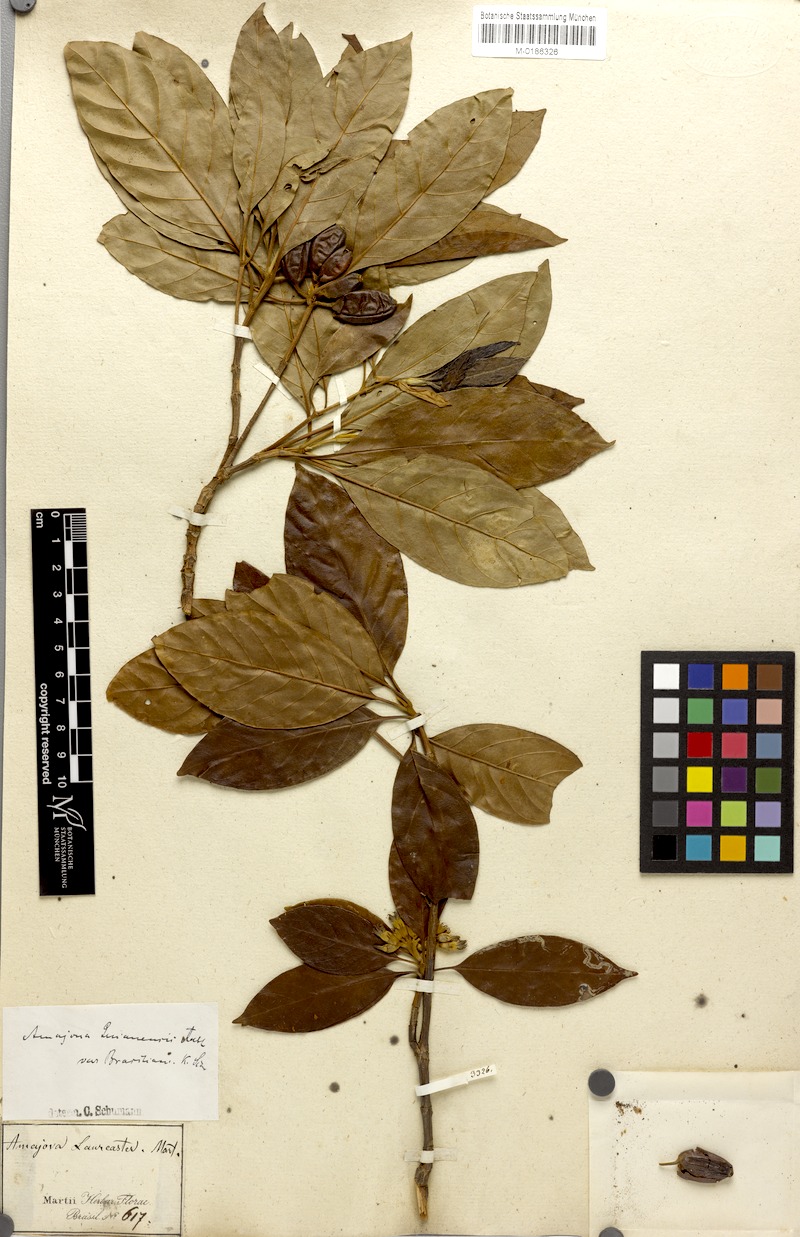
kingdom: Plantae
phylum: Tracheophyta
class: Magnoliopsida
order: Gentianales
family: Rubiaceae
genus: Amaioua
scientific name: Amaioua intermedia
